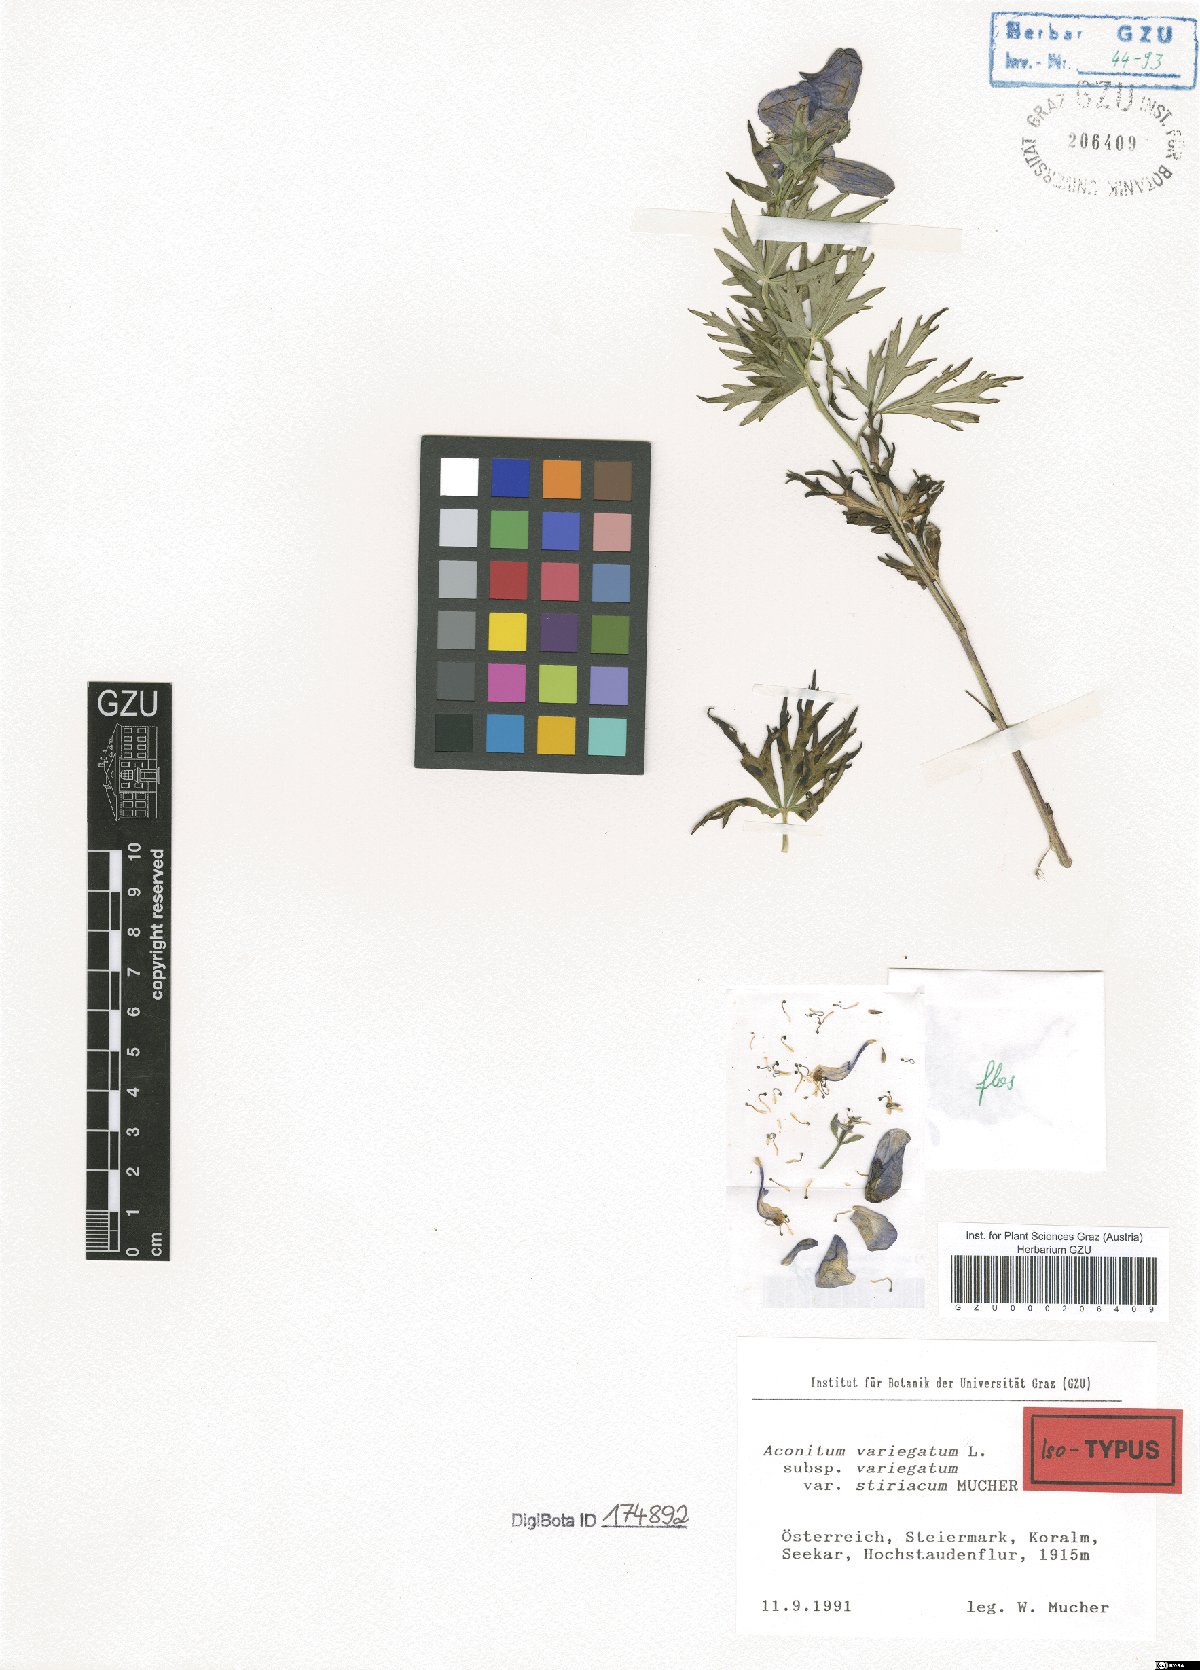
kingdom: Plantae
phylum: Tracheophyta
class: Magnoliopsida
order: Ranunculales
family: Ranunculaceae
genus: Aconitum
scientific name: Aconitum variegatum
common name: Manchurian monkshood
